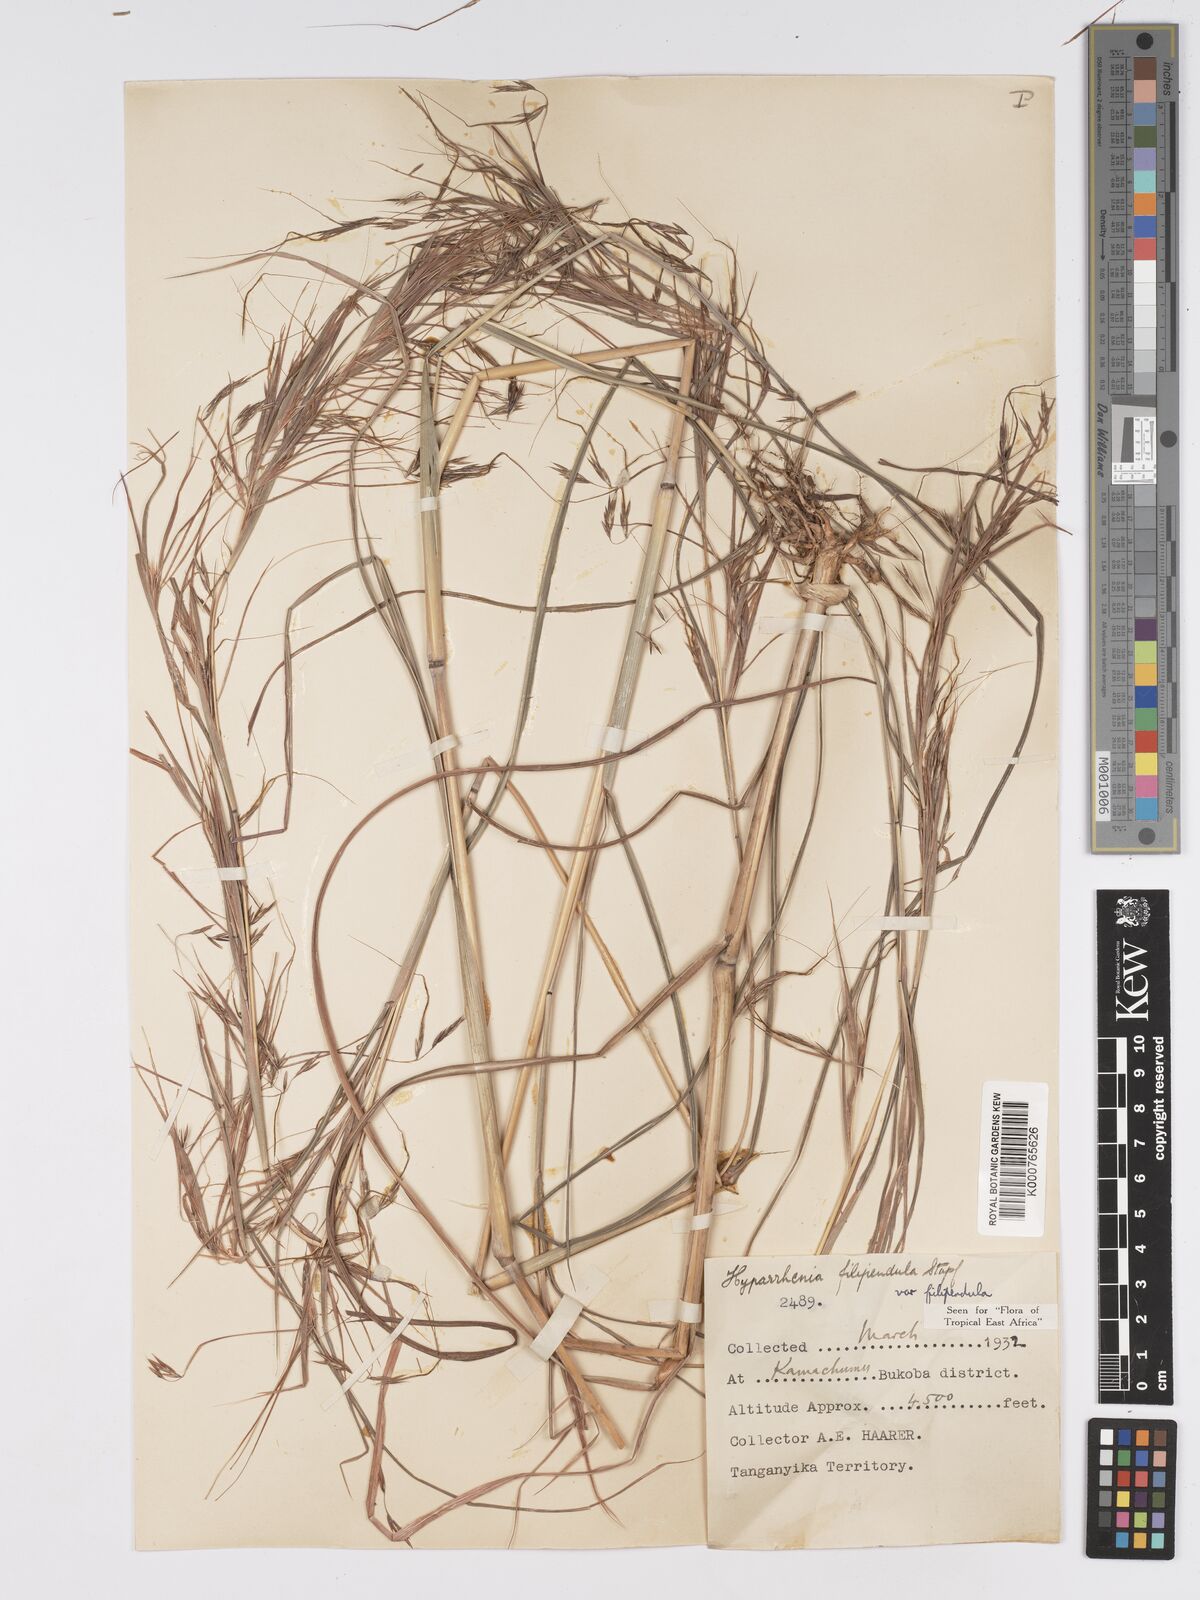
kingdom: Plantae
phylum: Tracheophyta
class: Liliopsida
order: Poales
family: Poaceae
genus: Hyparrhenia
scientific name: Hyparrhenia filipendula
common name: Tambookie grass
